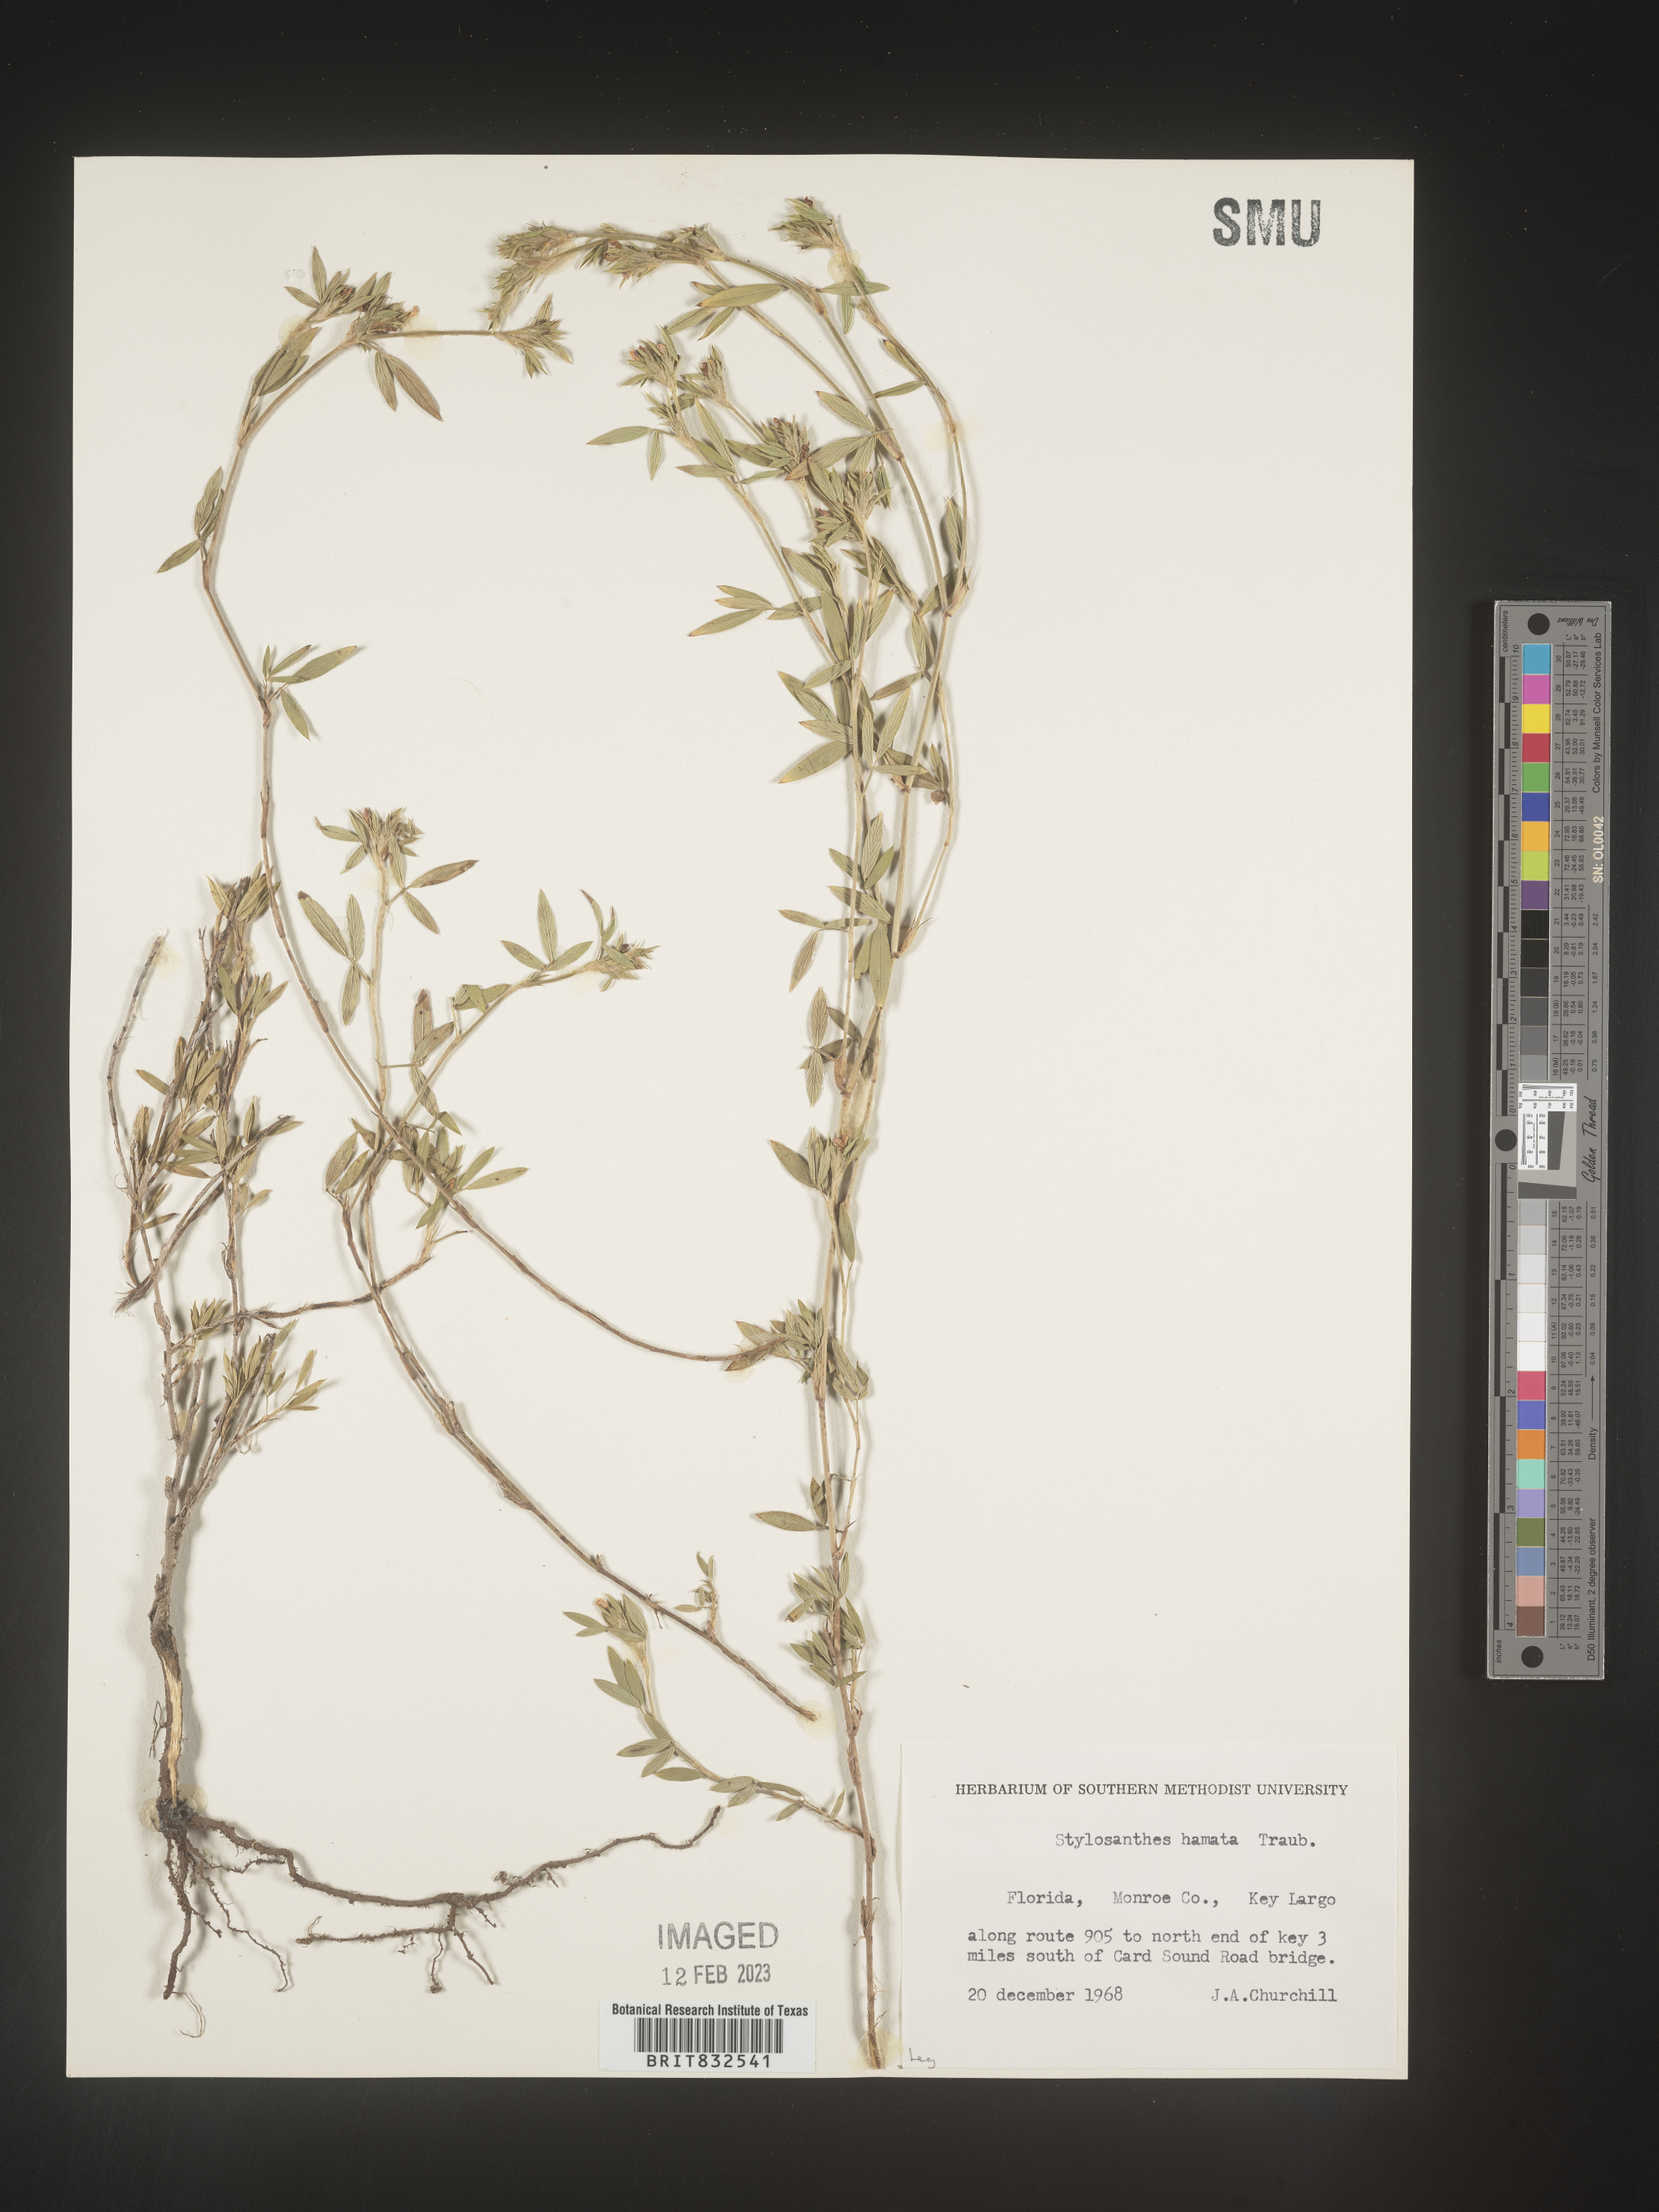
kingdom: Plantae
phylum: Tracheophyta
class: Magnoliopsida
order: Fabales
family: Fabaceae
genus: Stylosanthes
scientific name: Stylosanthes
